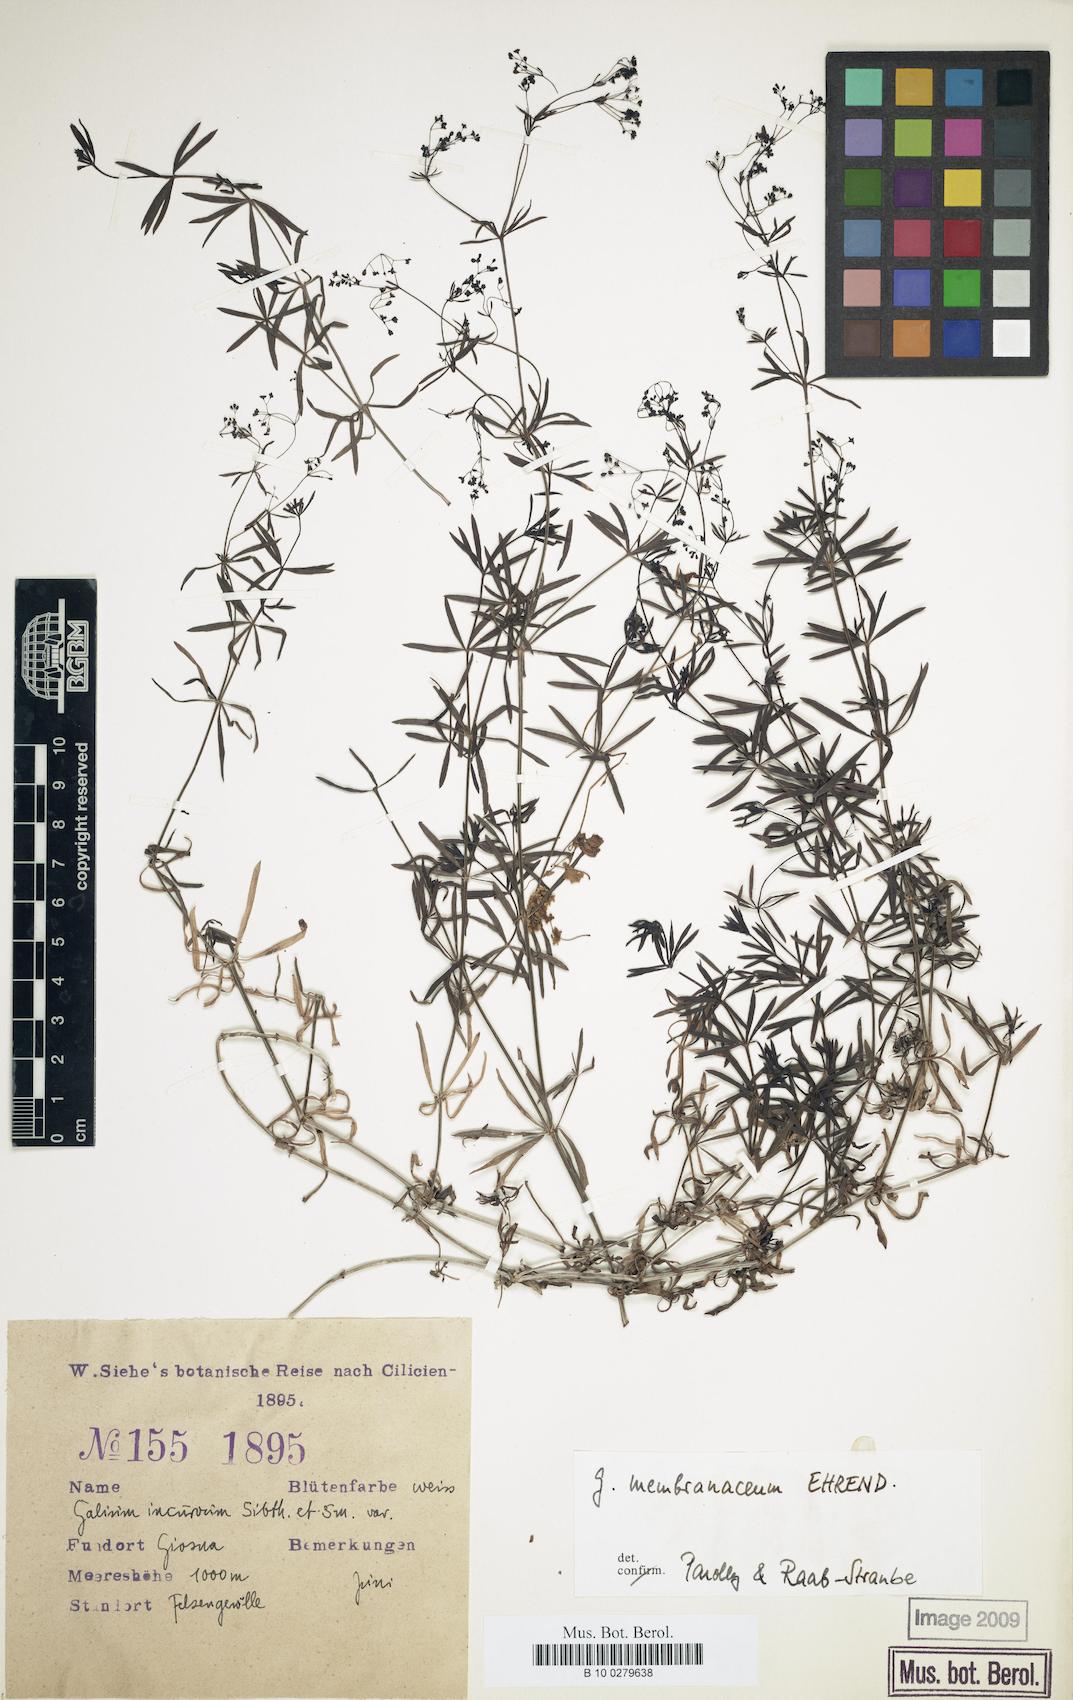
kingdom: Plantae
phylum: Tracheophyta
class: Magnoliopsida
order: Gentianales
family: Rubiaceae
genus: Galium
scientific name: Galium membranaceum
